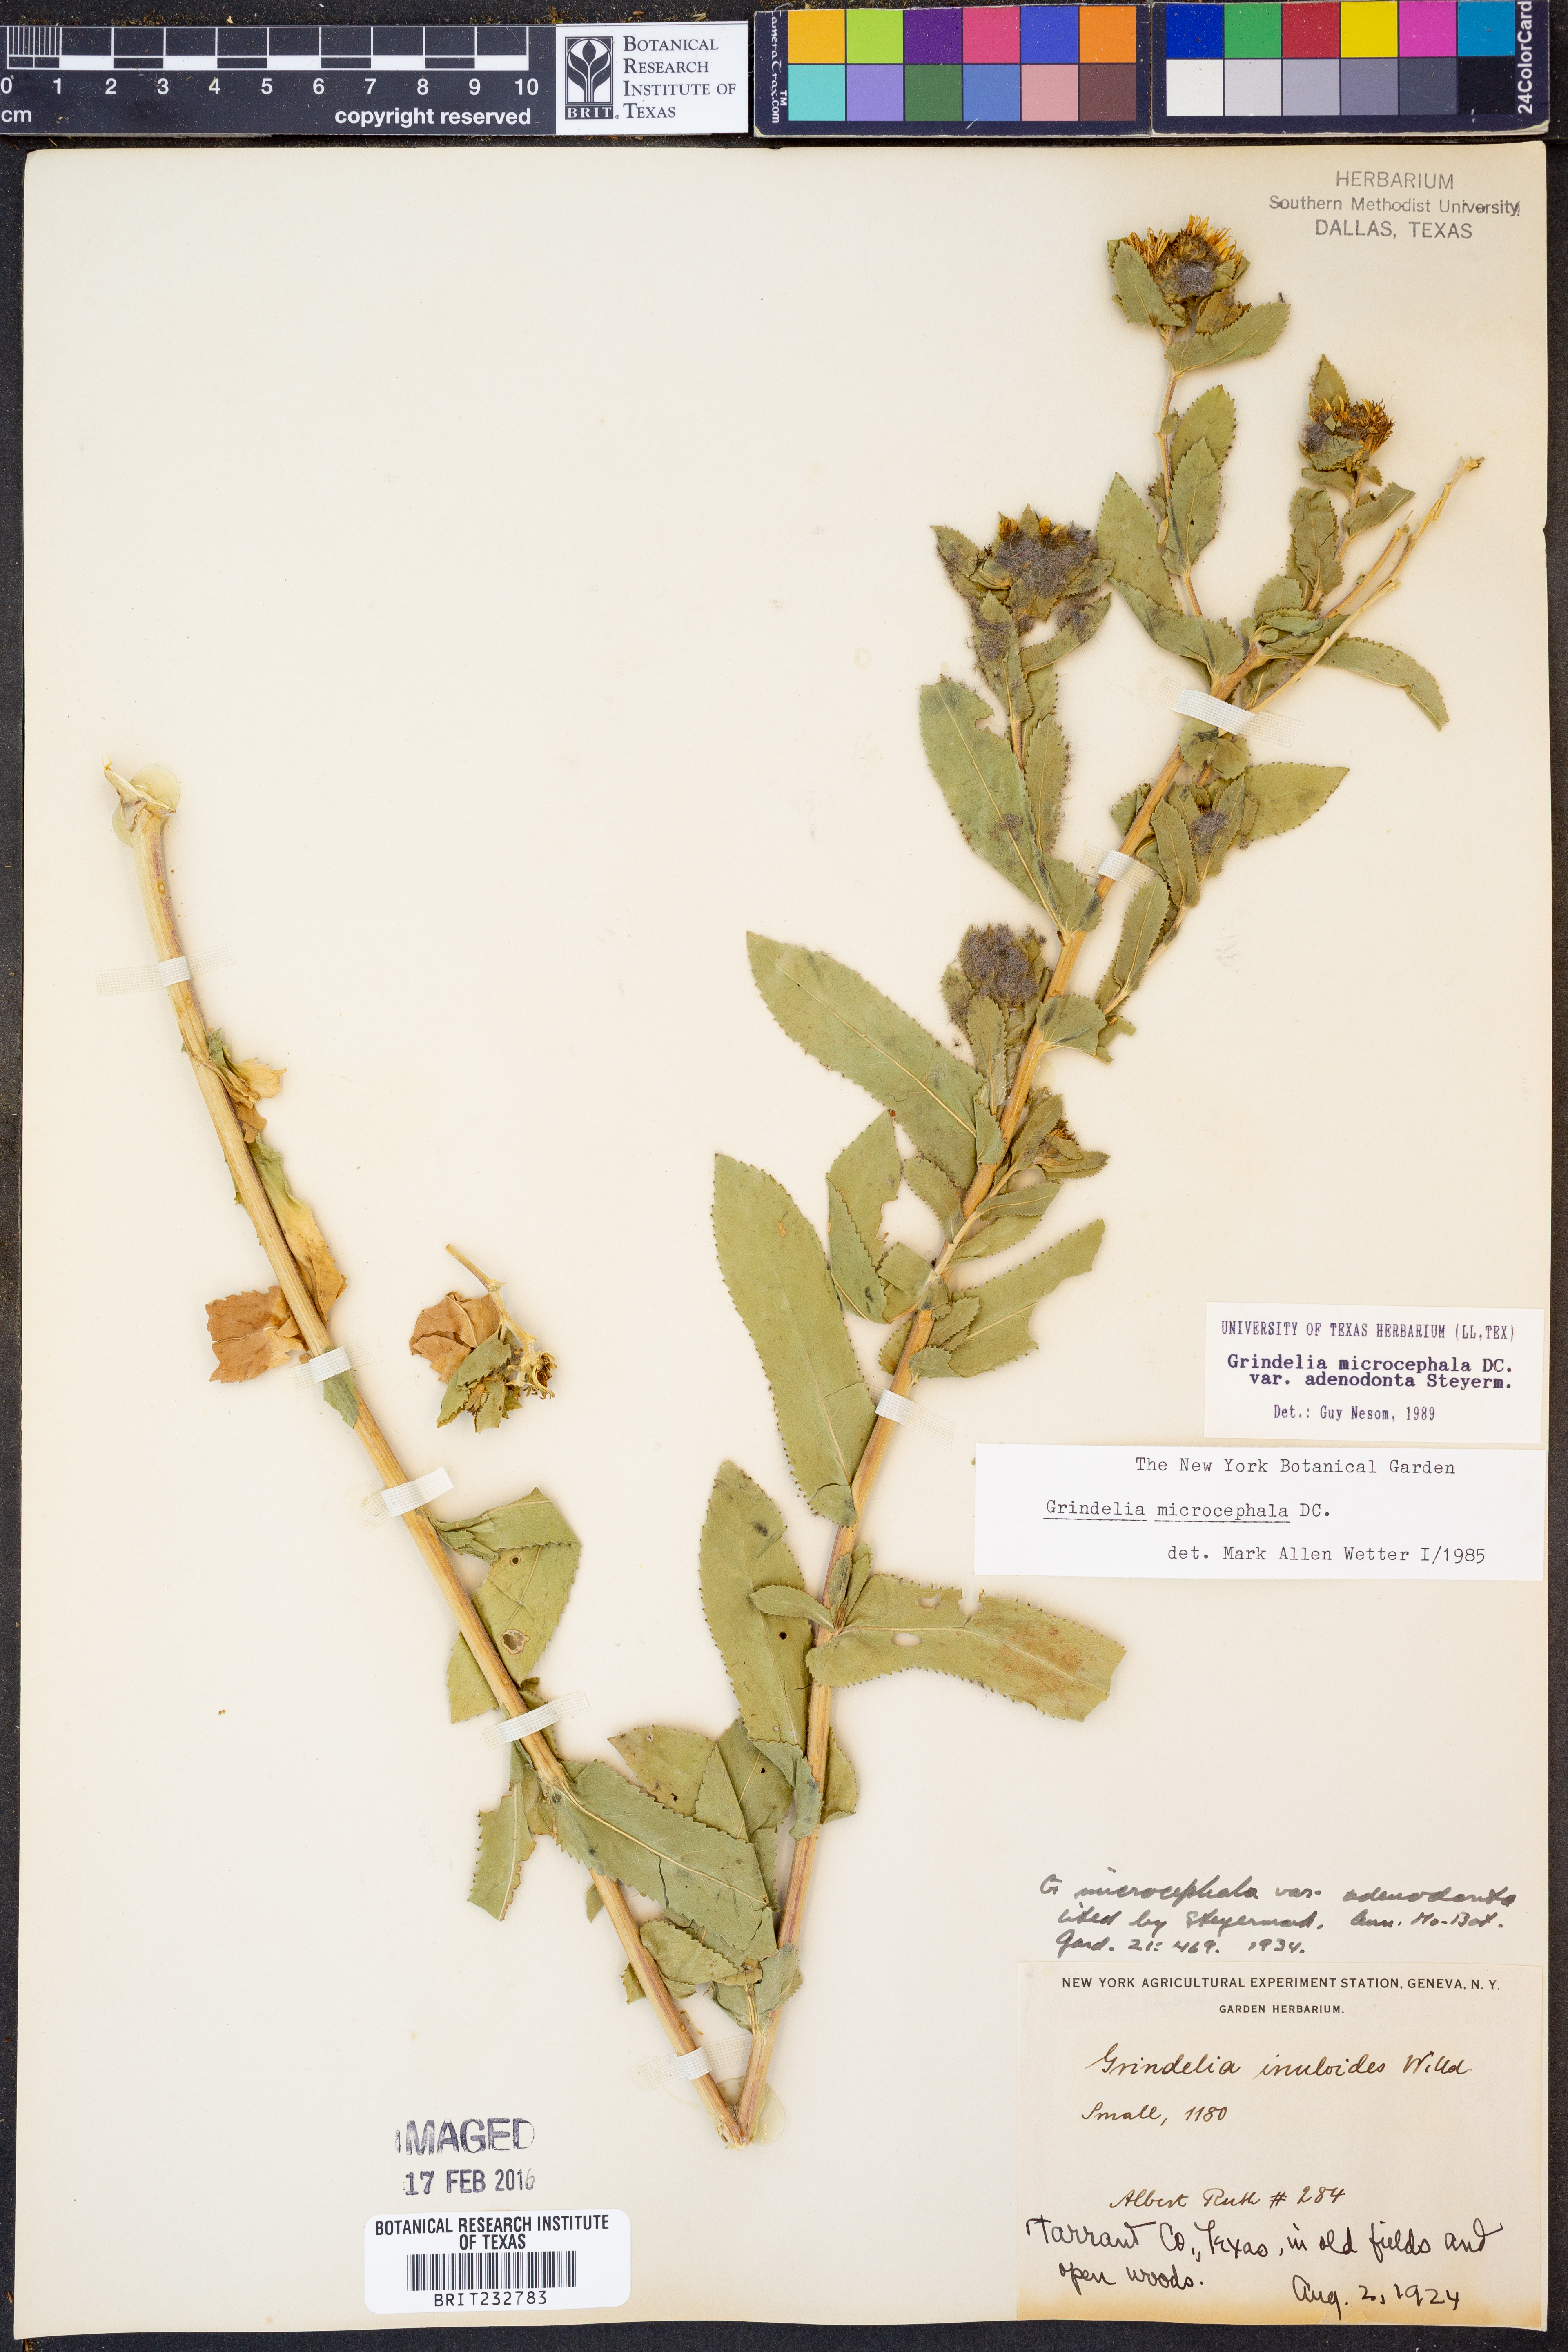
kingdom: Plantae
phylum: Tracheophyta
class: Magnoliopsida
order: Asterales
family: Asteraceae
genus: Grindelia
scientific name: Grindelia adenodonta
